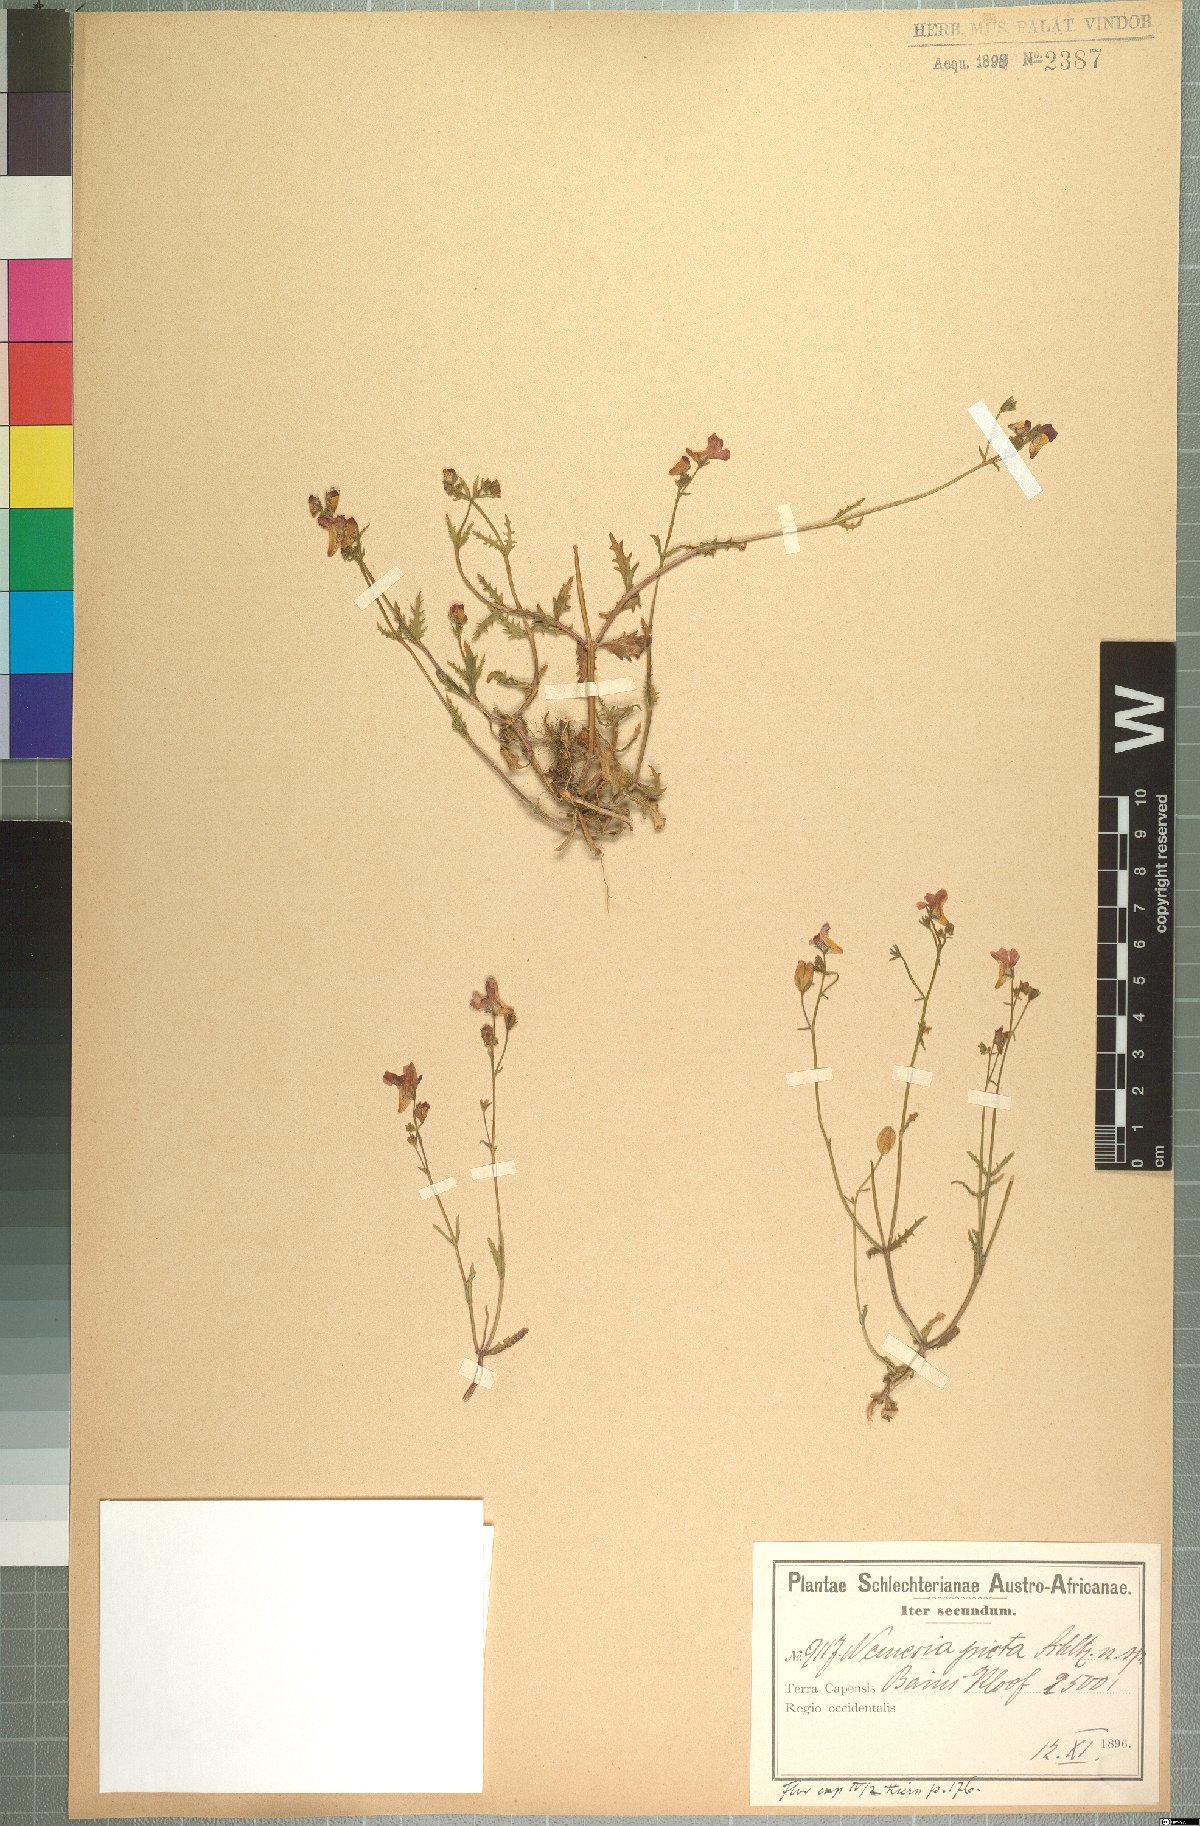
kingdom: Plantae
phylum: Tracheophyta
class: Magnoliopsida
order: Lamiales
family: Scrophulariaceae
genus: Nemesia
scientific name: Nemesia picta
